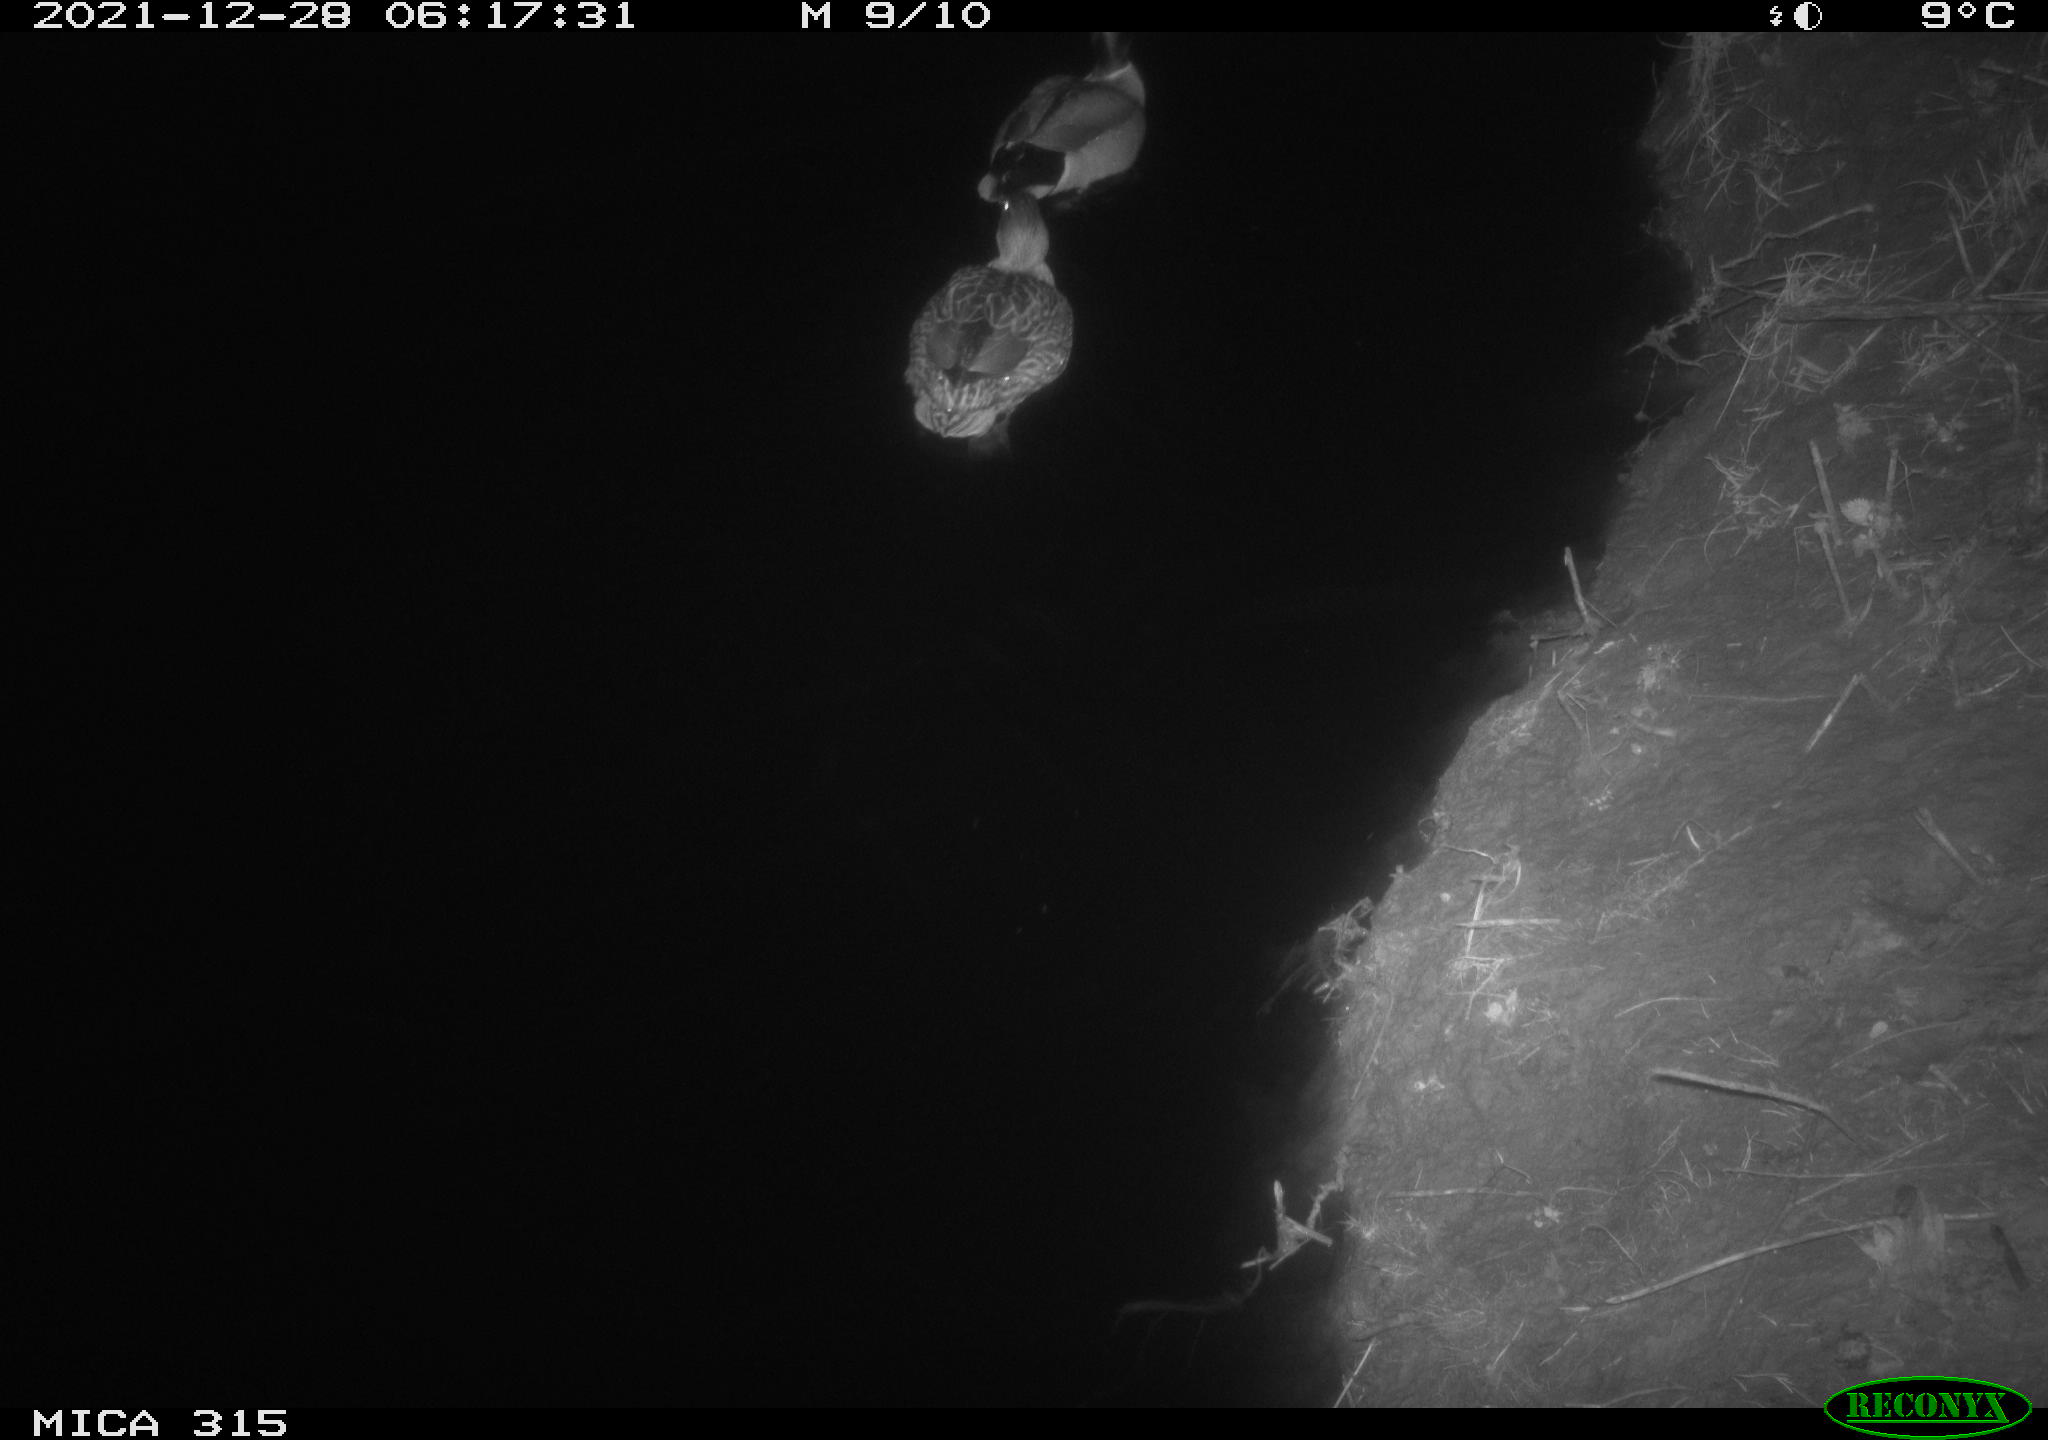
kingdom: Animalia
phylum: Chordata
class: Aves
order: Anseriformes
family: Anatidae
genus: Anas
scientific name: Anas
